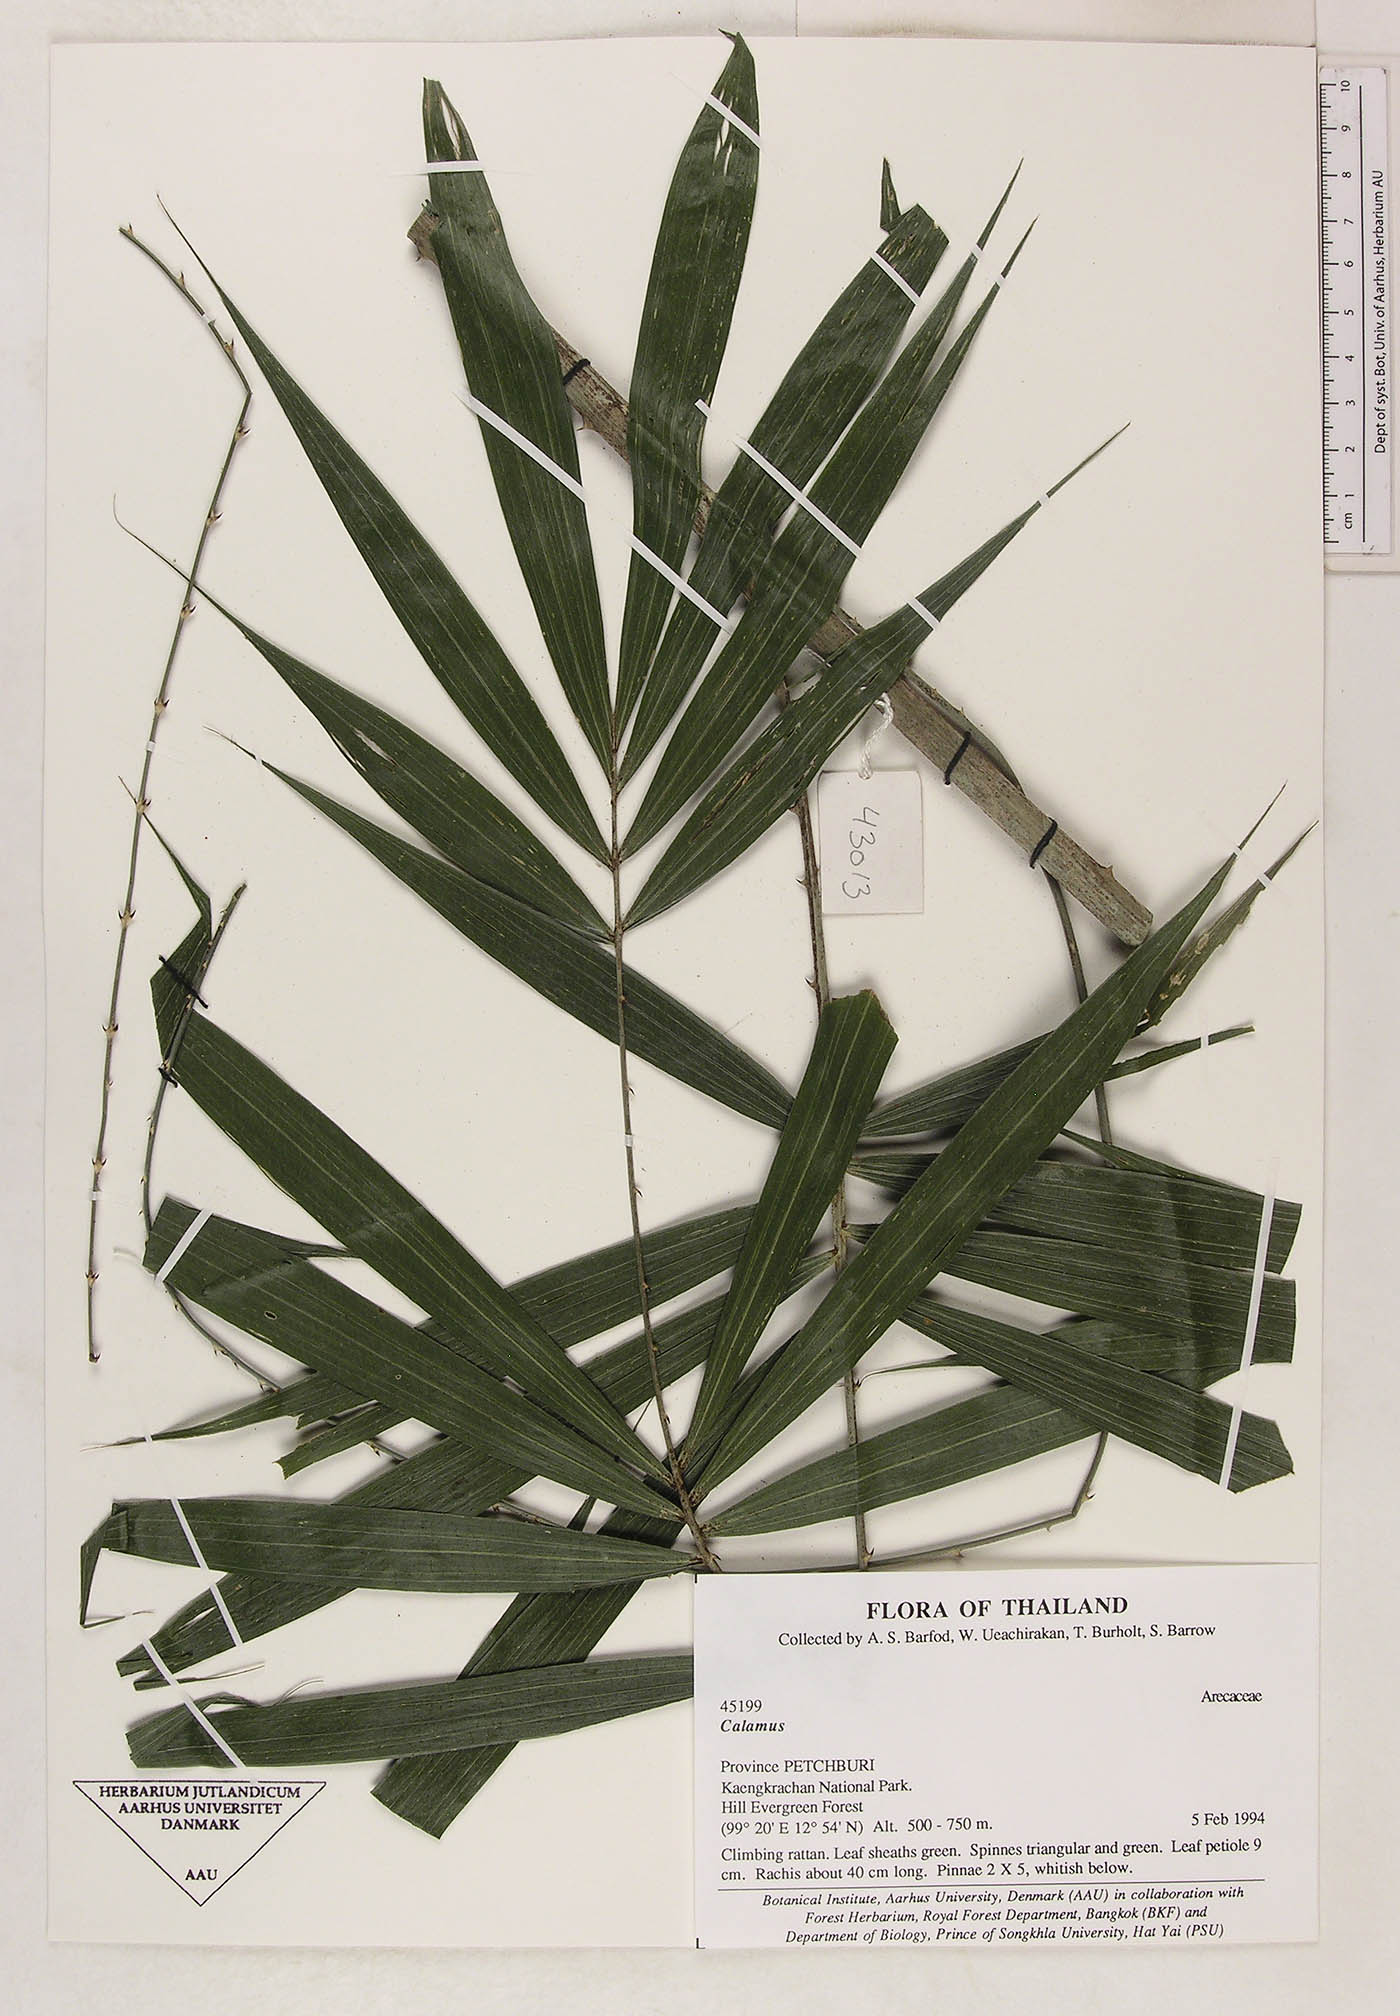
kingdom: Plantae
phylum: Tracheophyta
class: Liliopsida
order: Arecales
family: Arecaceae
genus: Calamus
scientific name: Calamus gracilis
